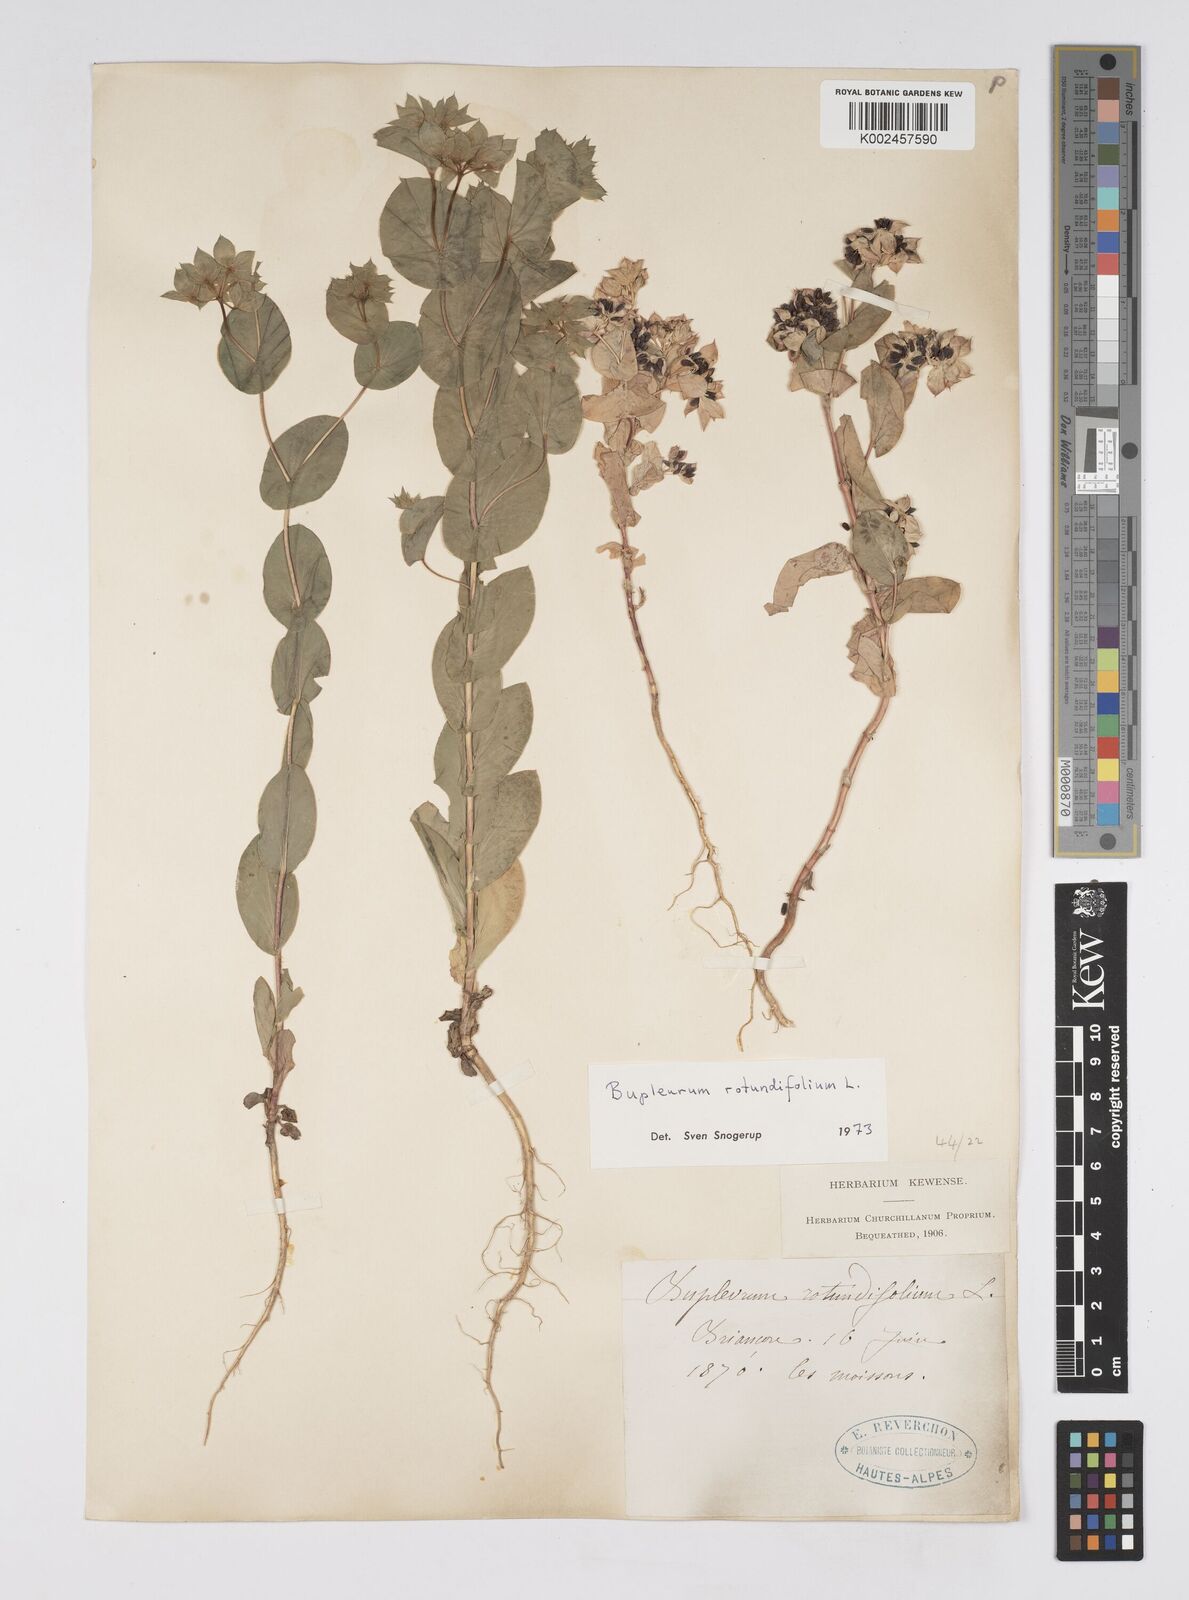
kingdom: Plantae
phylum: Tracheophyta
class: Magnoliopsida
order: Apiales
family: Apiaceae
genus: Bupleurum
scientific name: Bupleurum rotundifolium
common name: Thorow-wax
